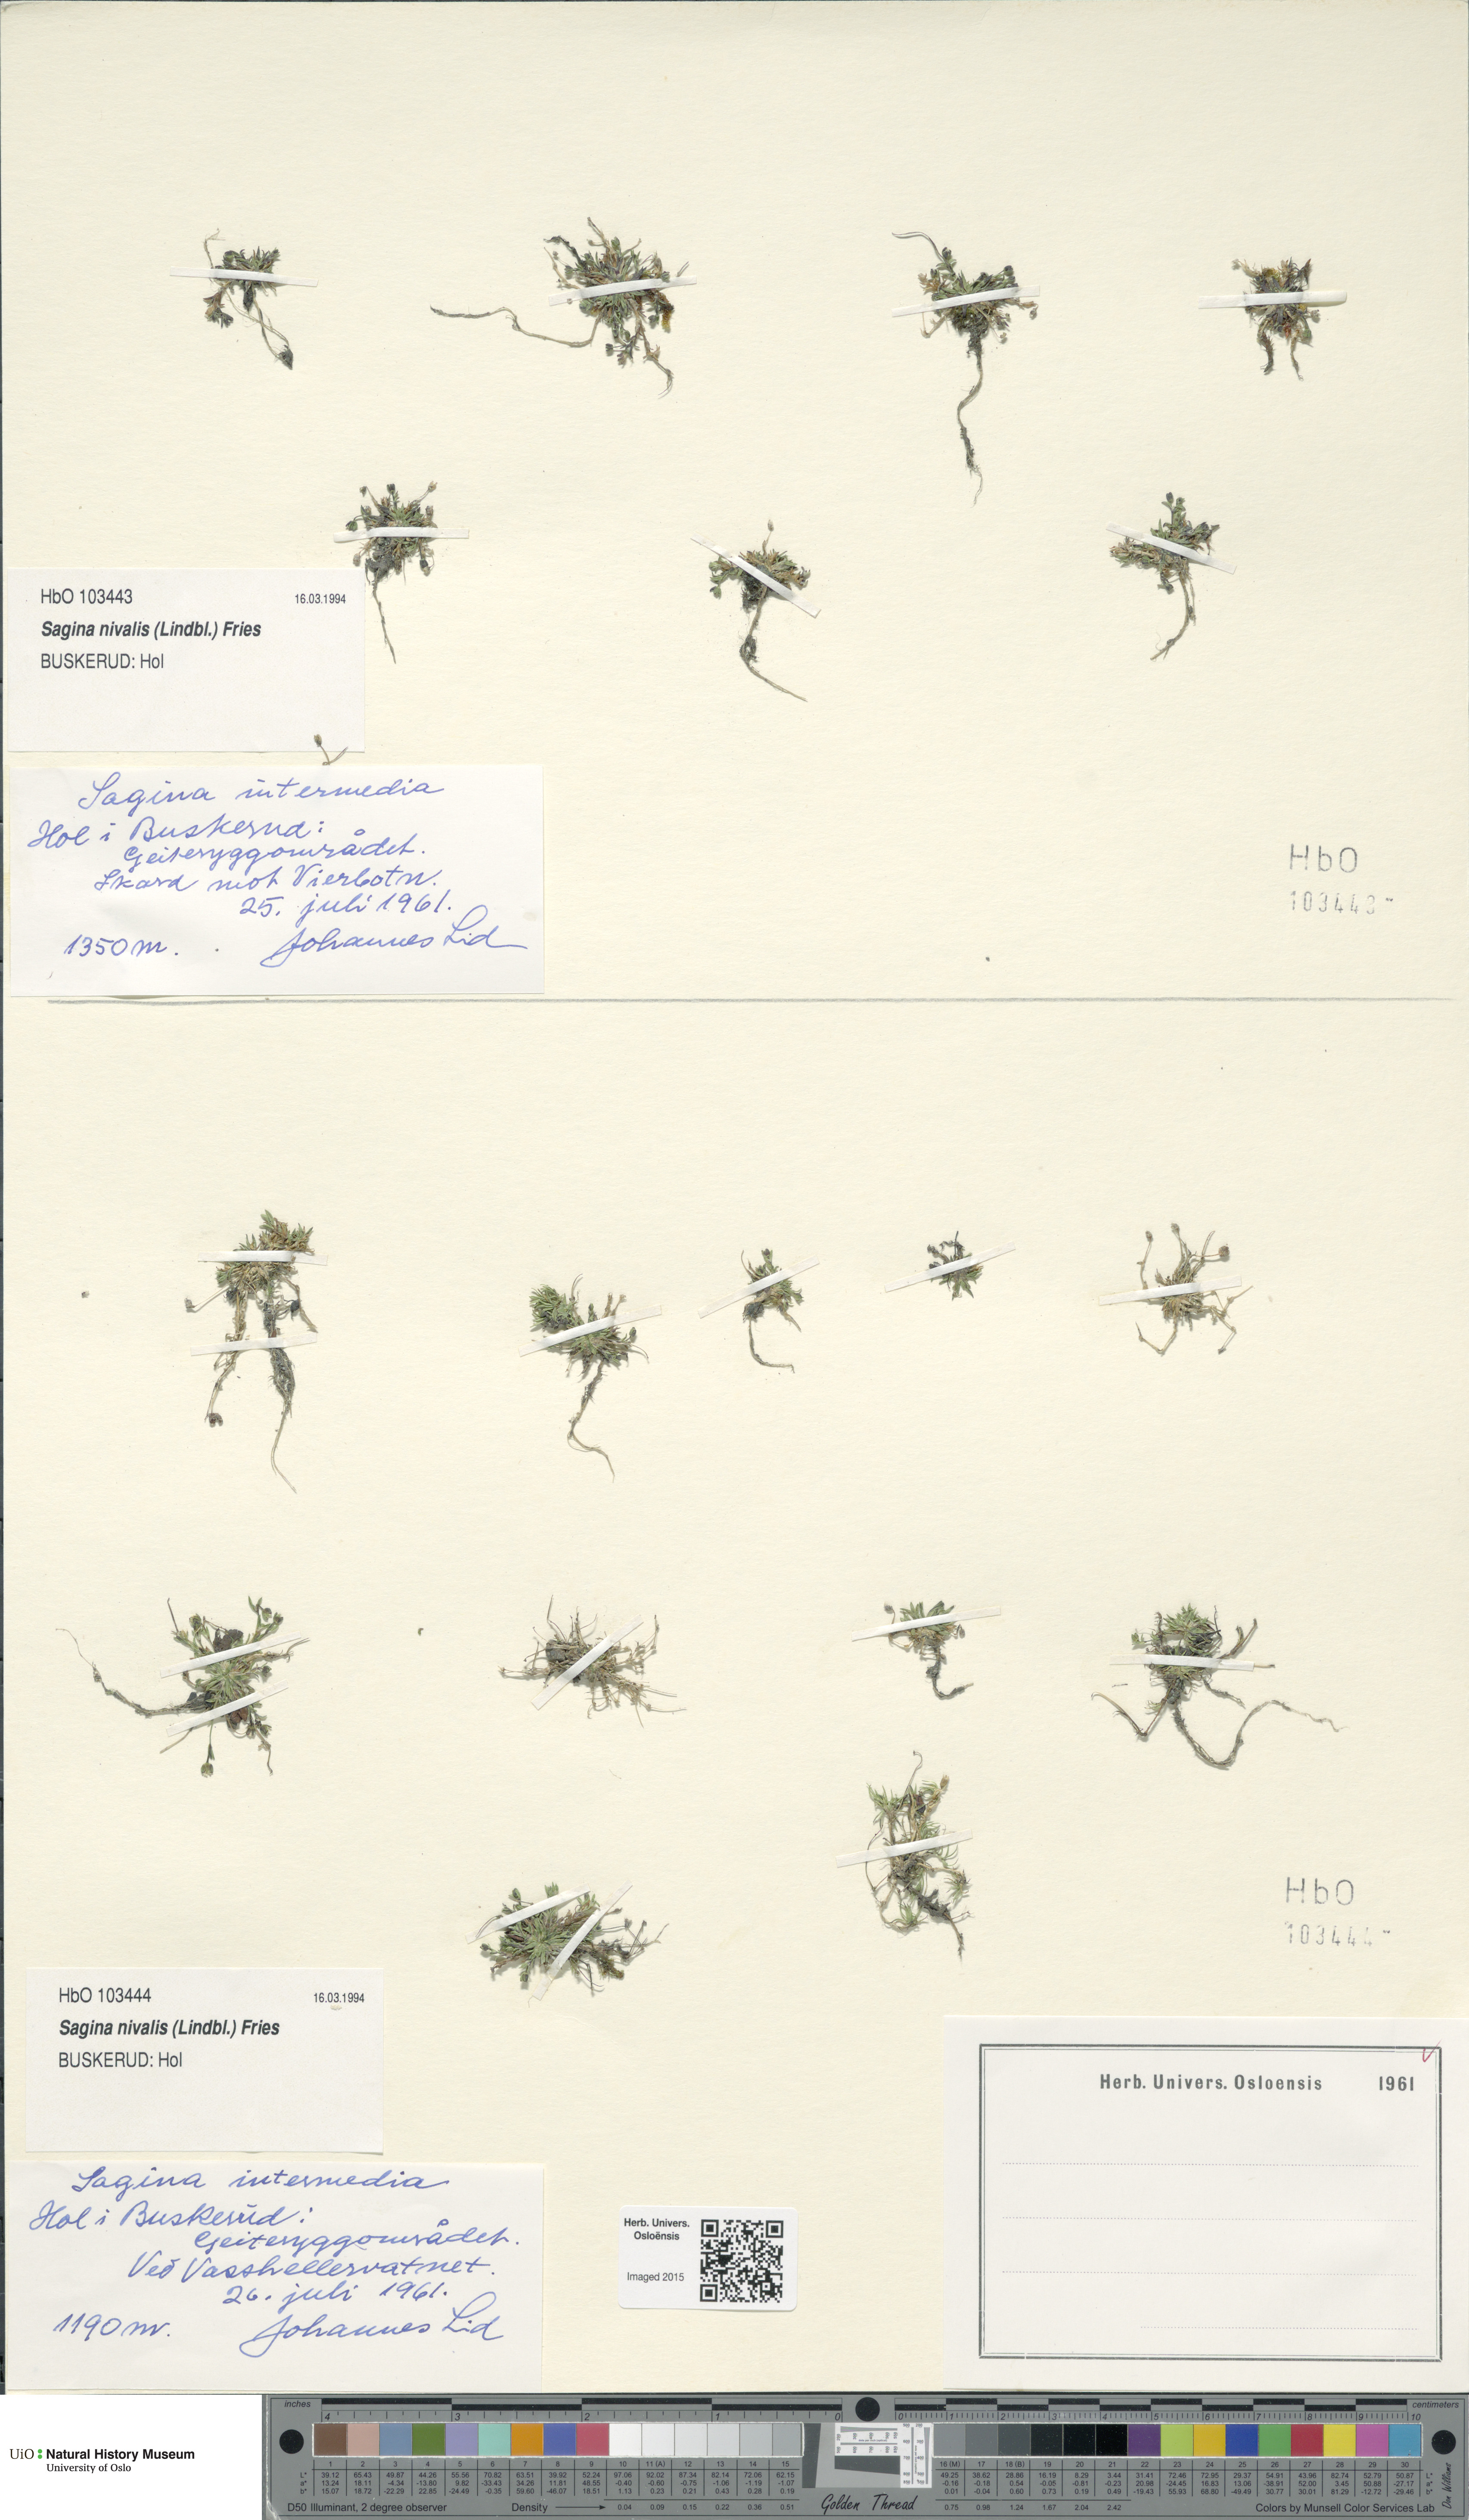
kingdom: Plantae
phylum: Tracheophyta
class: Magnoliopsida
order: Caryophyllales
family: Caryophyllaceae
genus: Sagina
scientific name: Sagina nivalis
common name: Snow pearlwort
